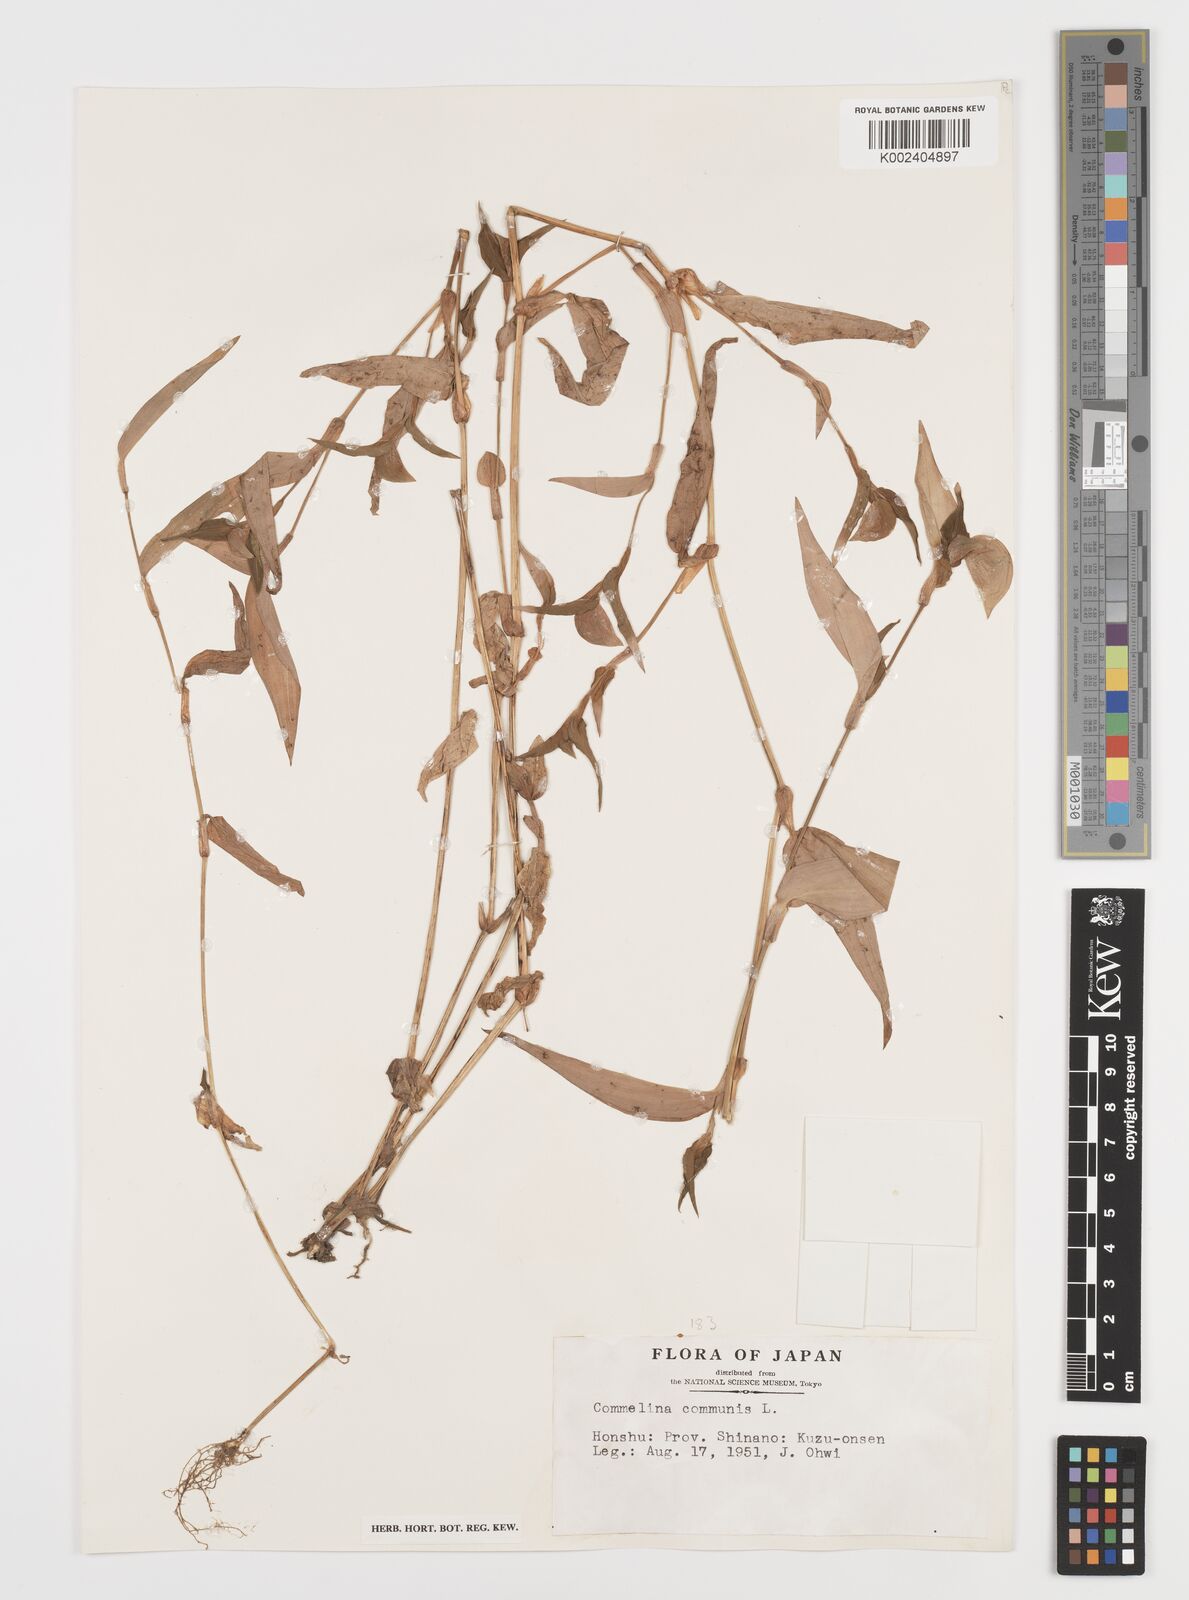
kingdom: Plantae
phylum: Tracheophyta
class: Liliopsida
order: Commelinales
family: Commelinaceae
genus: Commelina
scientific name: Commelina communis
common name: Asiatic dayflower
